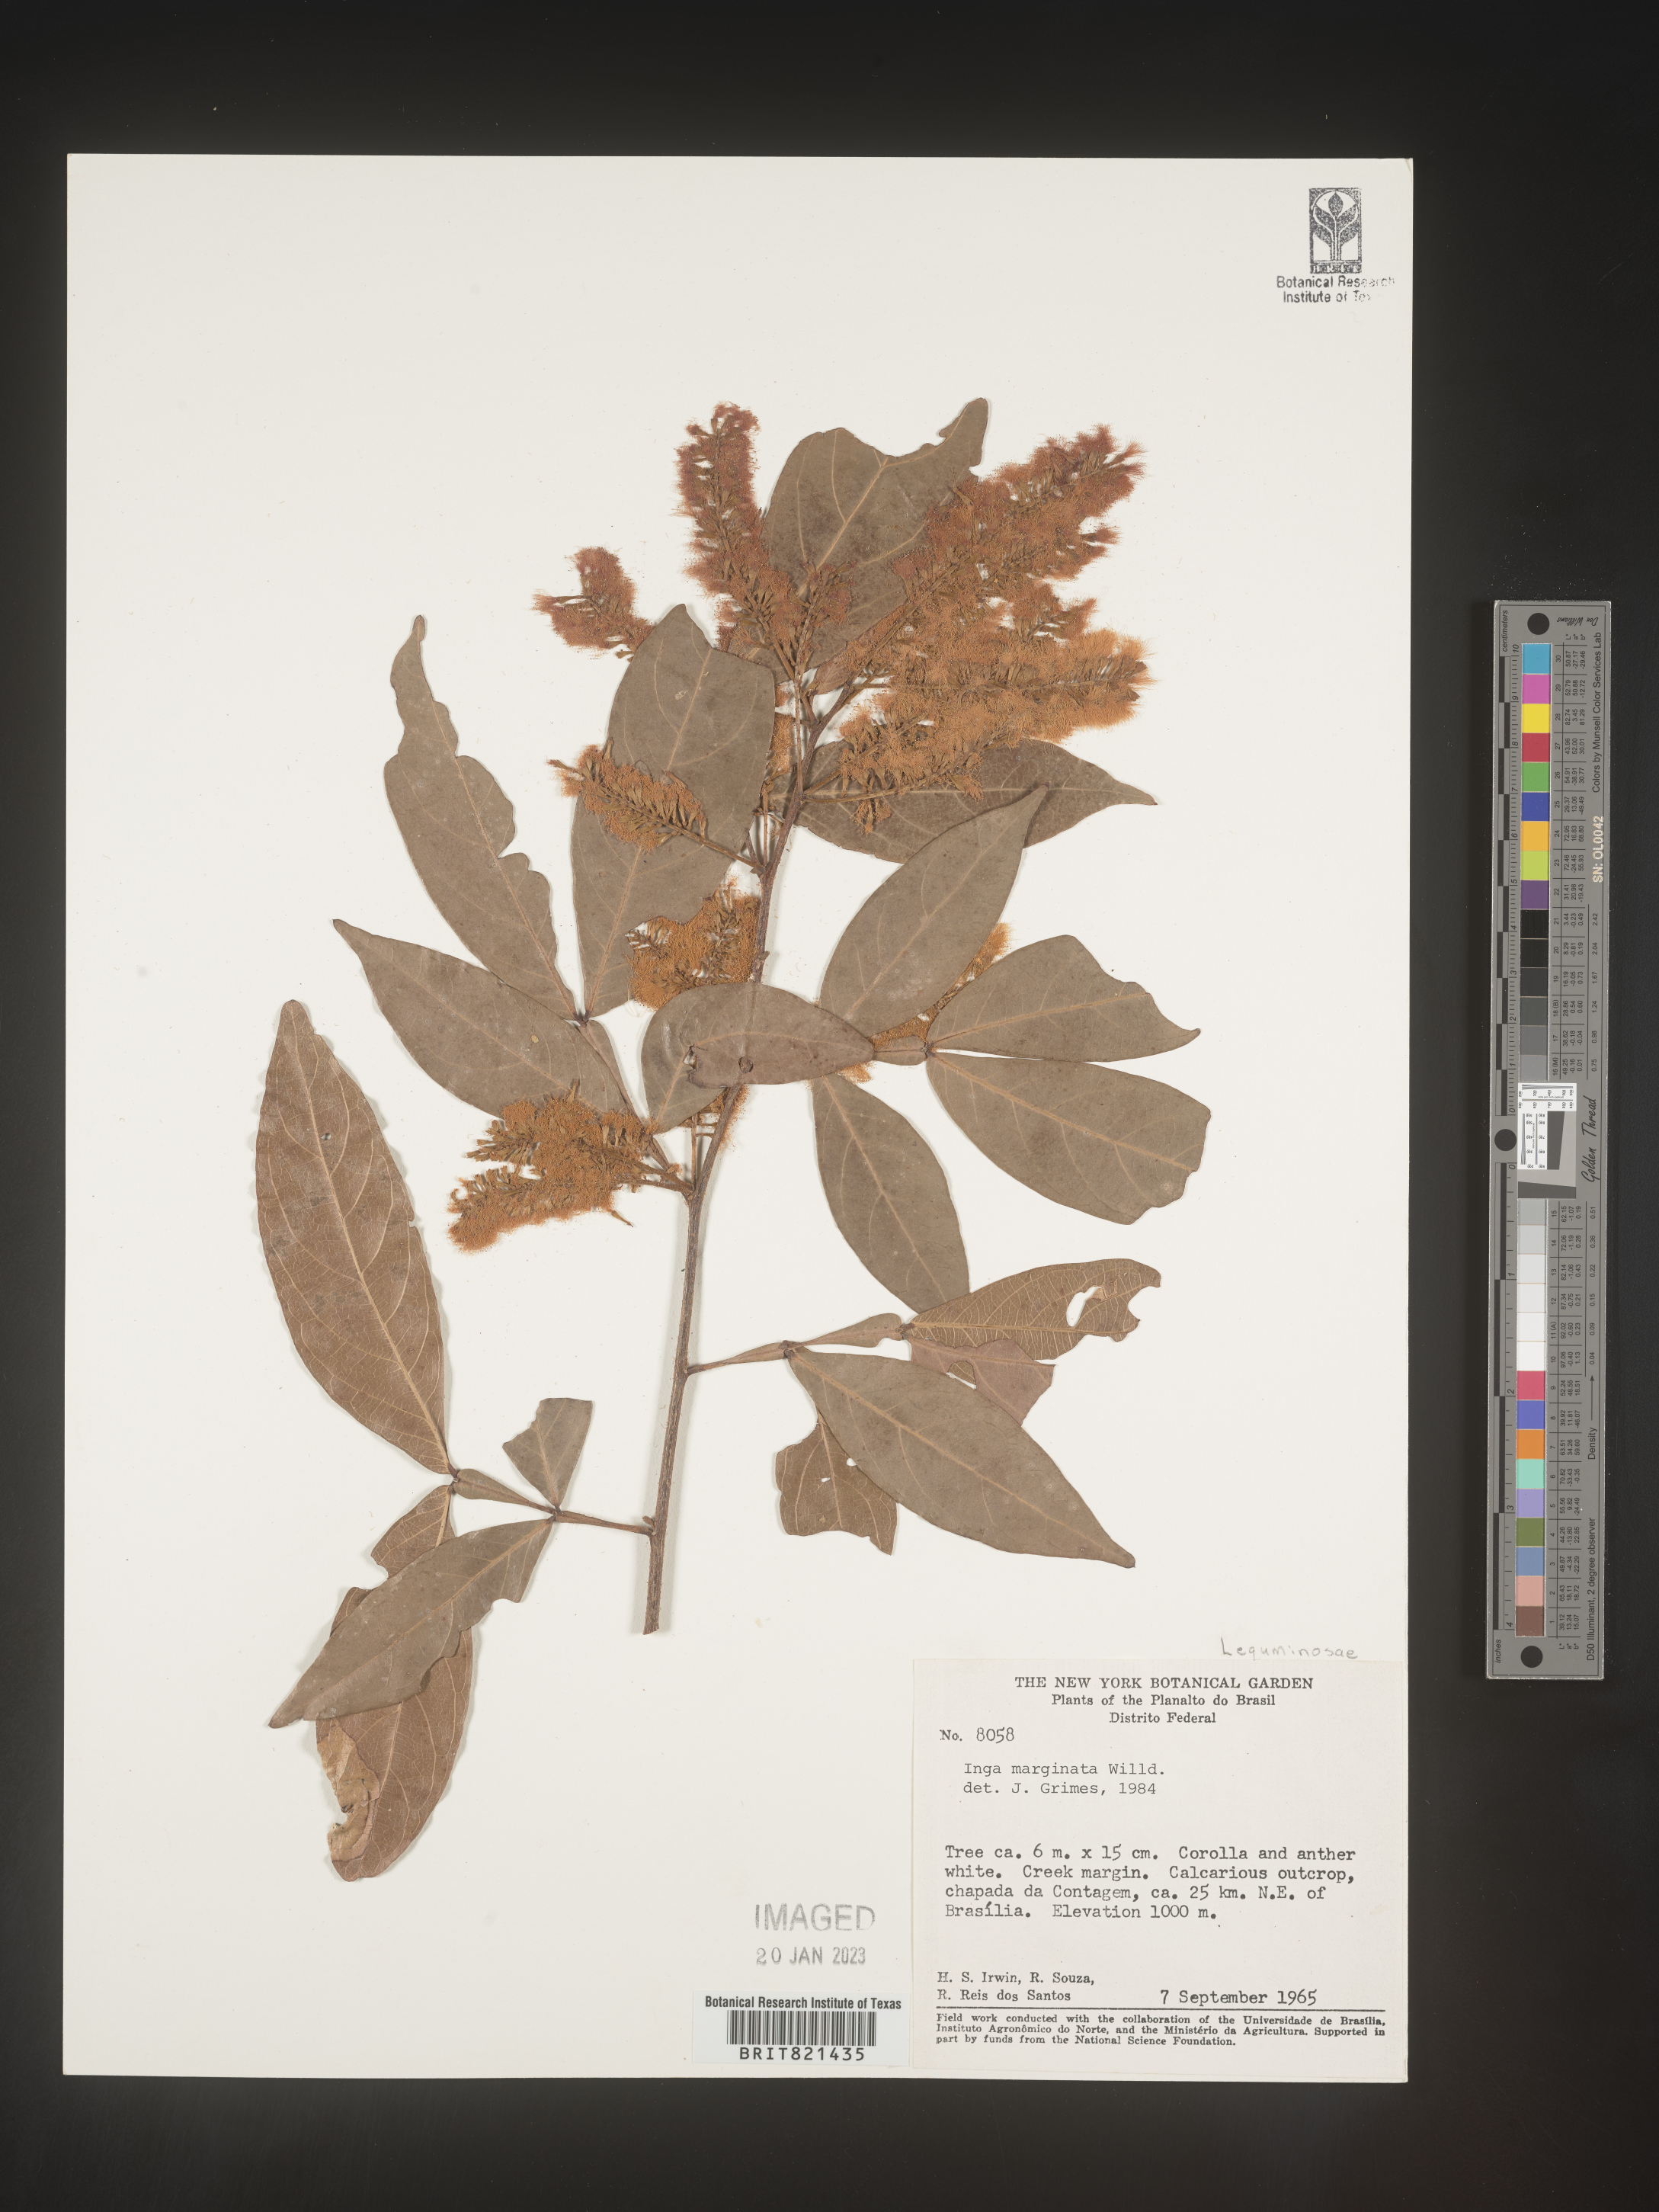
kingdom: Plantae
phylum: Tracheophyta
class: Magnoliopsida
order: Fabales
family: Fabaceae
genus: Inga
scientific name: Inga
